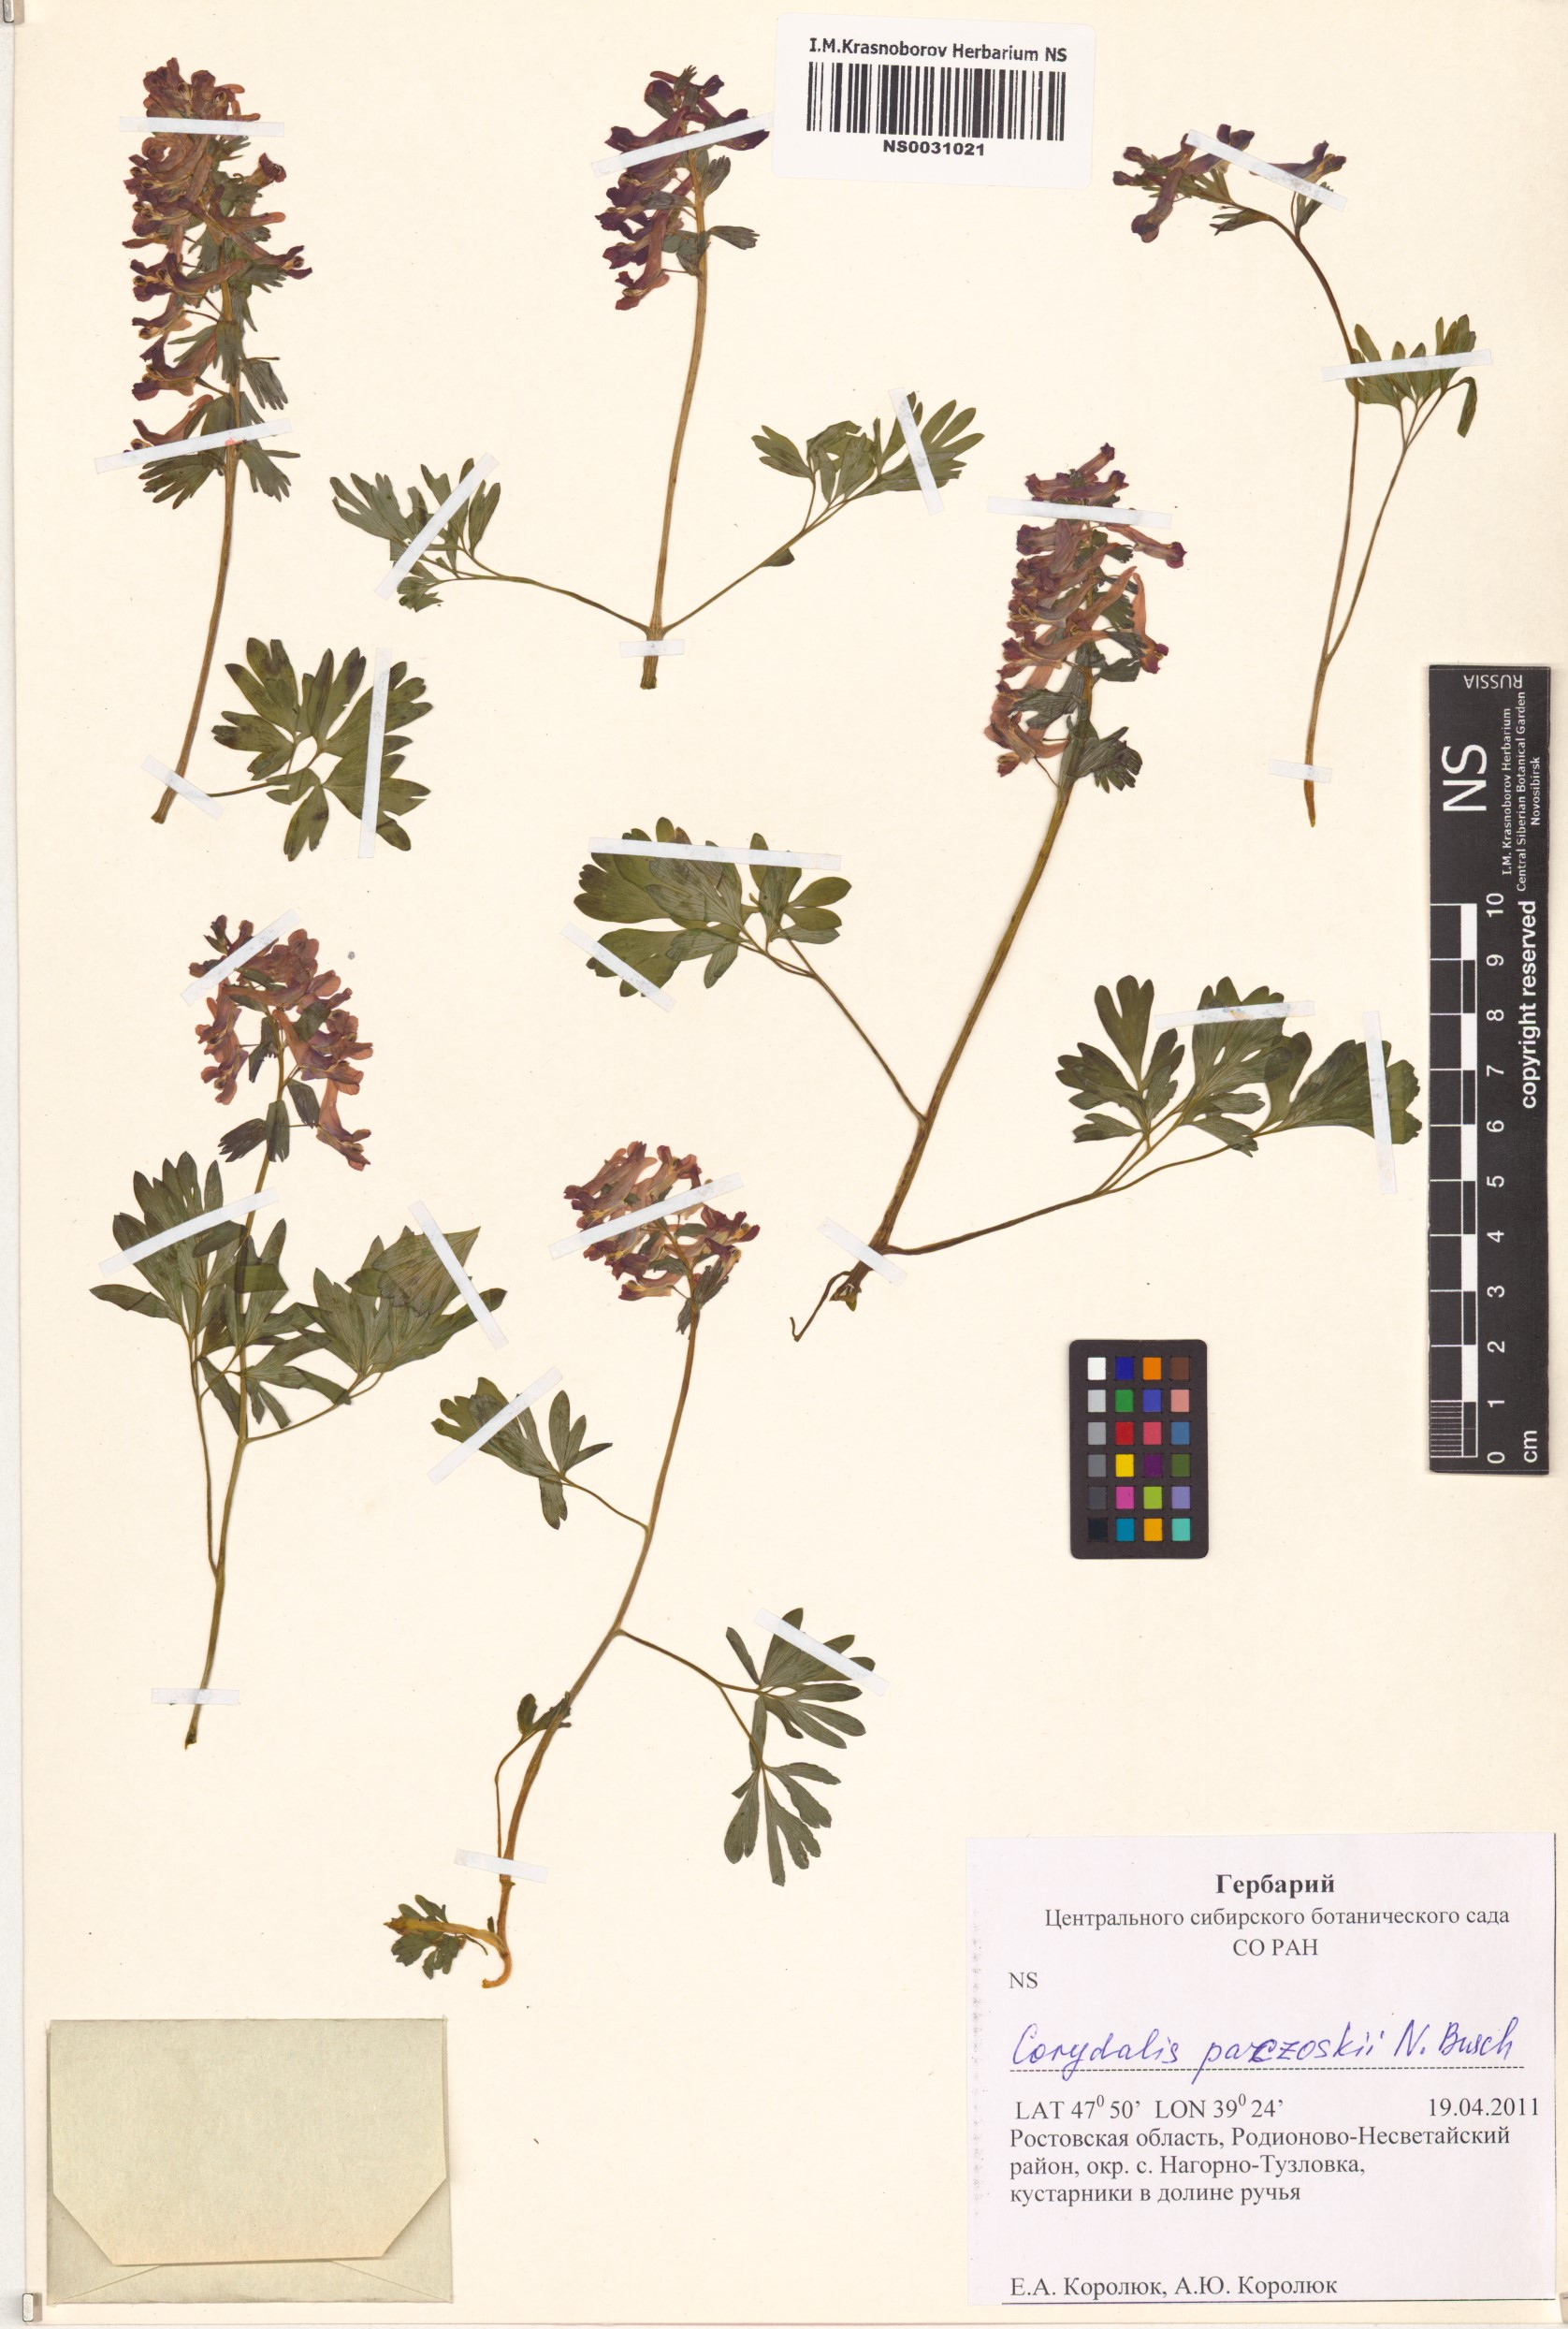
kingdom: Plantae
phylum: Tracheophyta
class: Magnoliopsida
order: Ranunculales
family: Papaveraceae
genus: Corydalis
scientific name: Corydalis paczoskii
